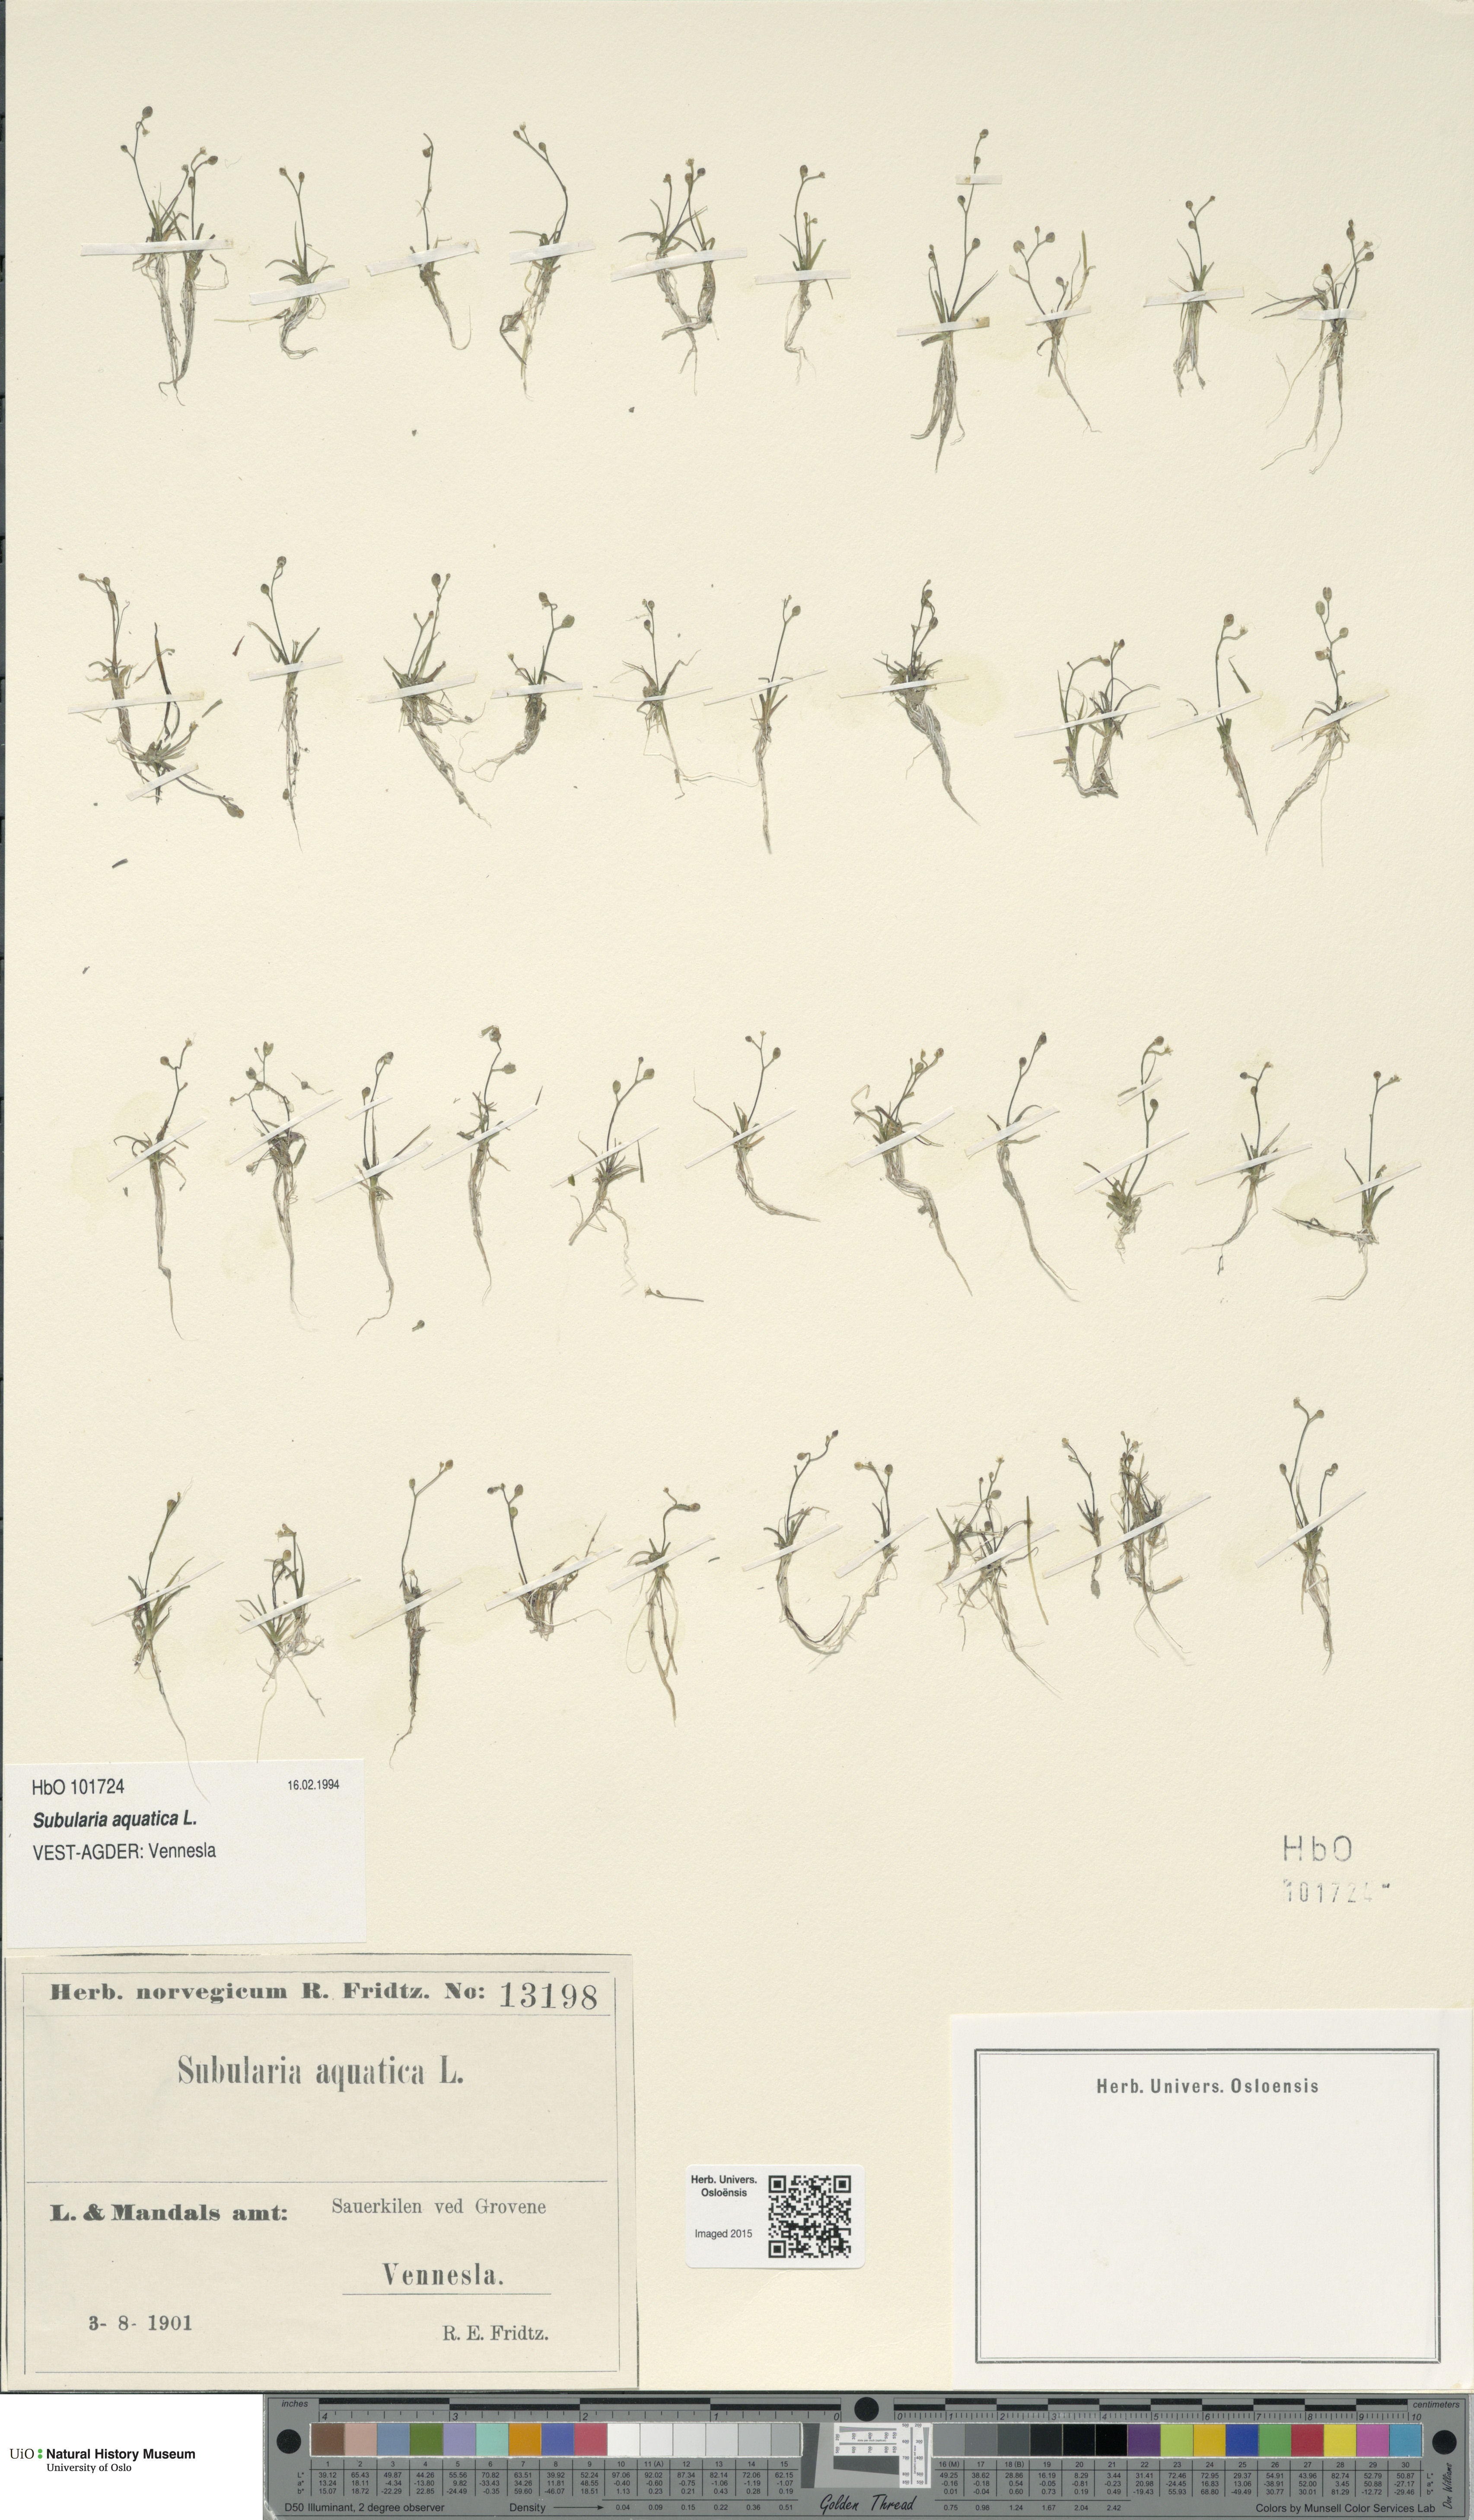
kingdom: Plantae
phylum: Tracheophyta
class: Magnoliopsida
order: Brassicales
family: Brassicaceae
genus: Subularia
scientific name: Subularia aquatica
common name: Awlwort
